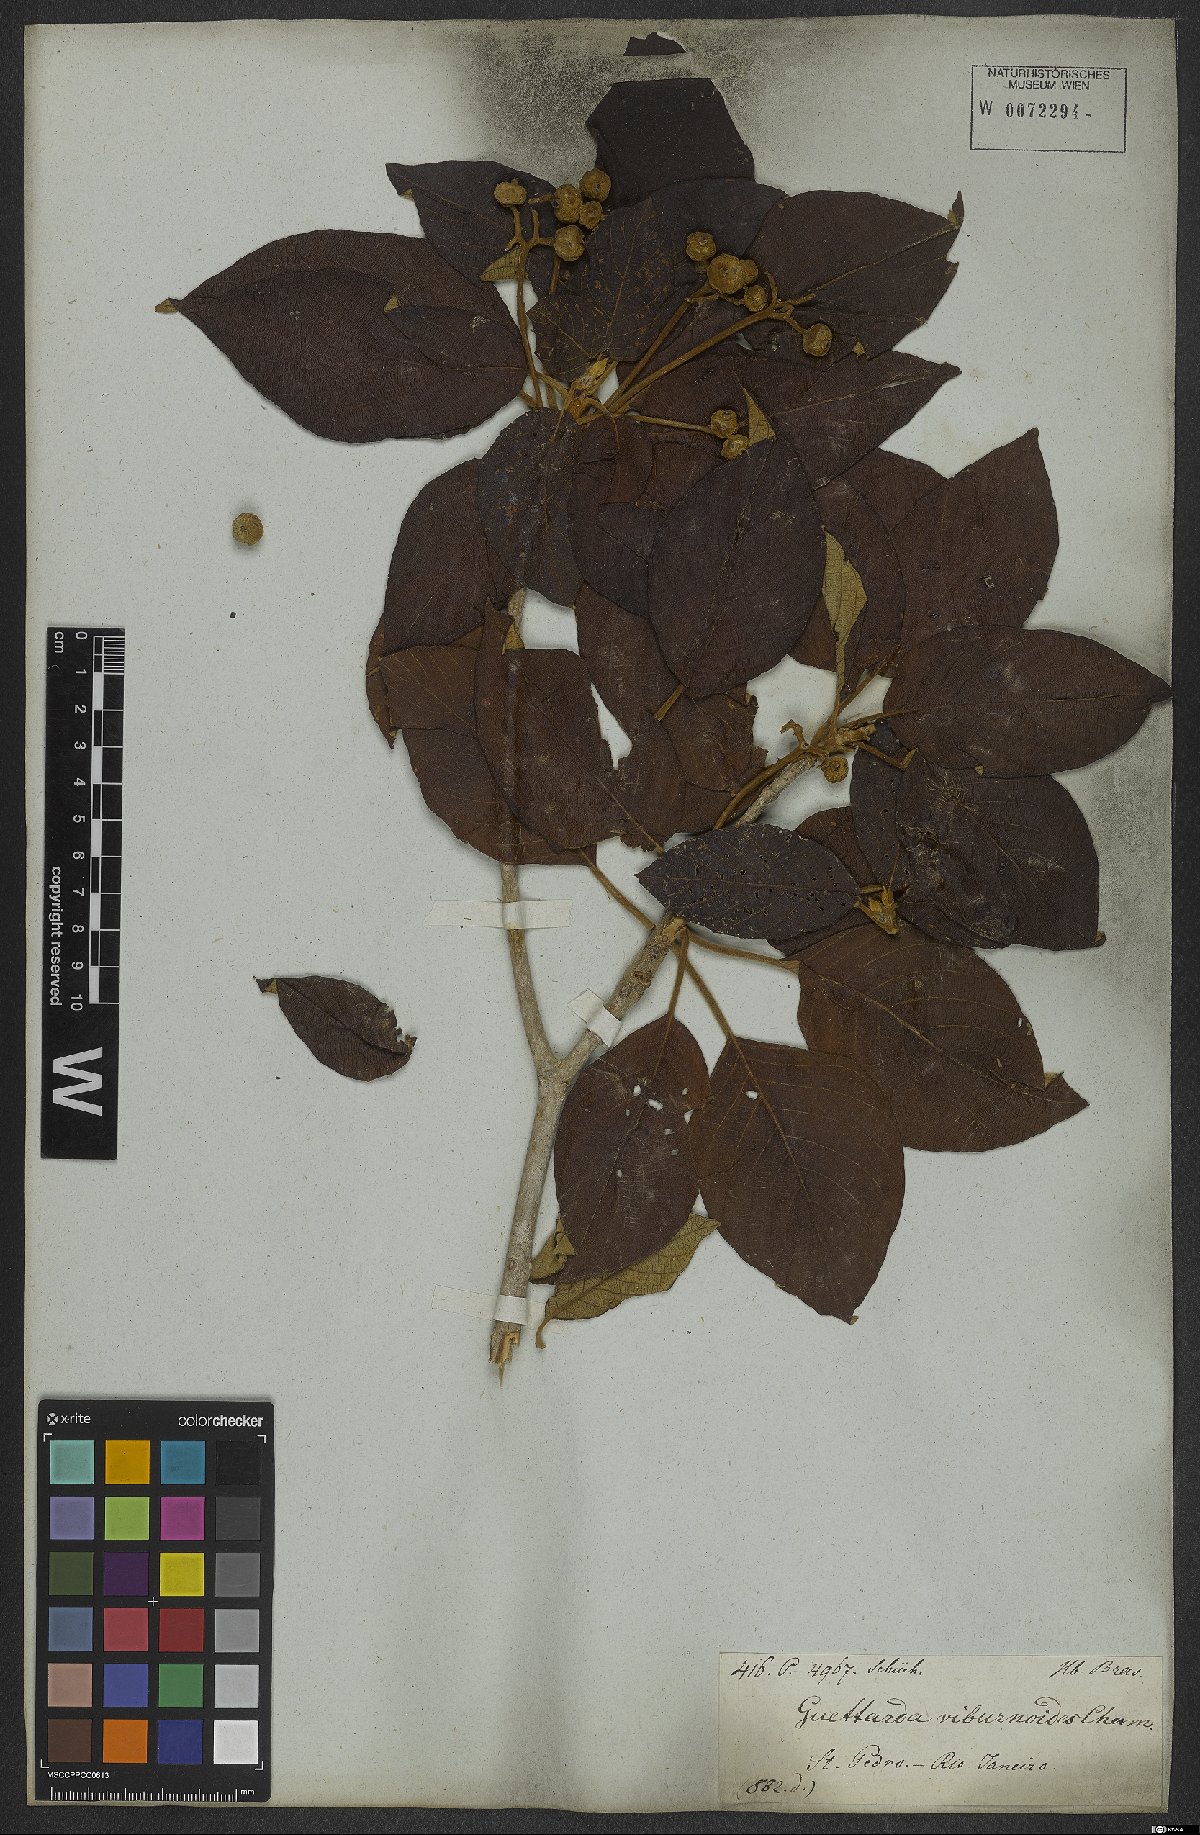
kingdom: Plantae
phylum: Tracheophyta
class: Magnoliopsida
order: Gentianales
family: Rubiaceae
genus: Guettarda
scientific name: Guettarda viburnoides
